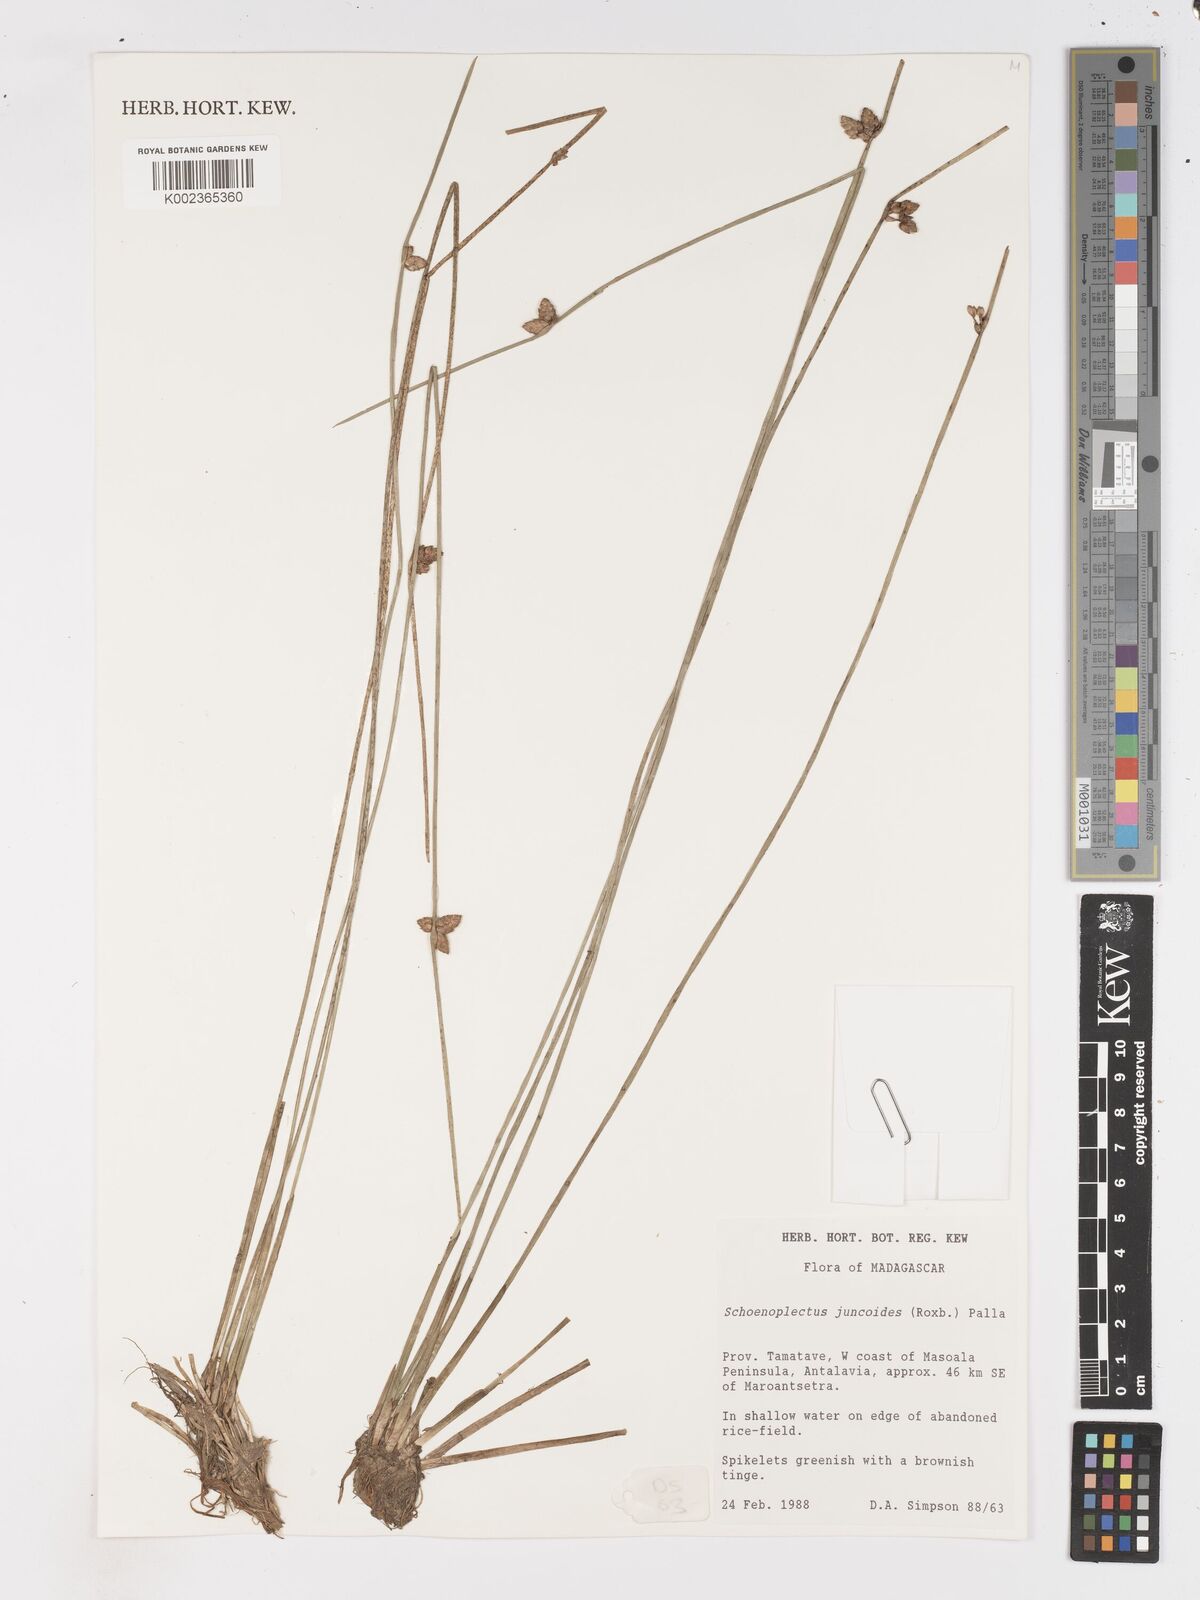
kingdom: Plantae
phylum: Tracheophyta
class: Liliopsida
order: Poales
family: Cyperaceae
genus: Schoenoplectiella
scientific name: Schoenoplectiella juncoides
